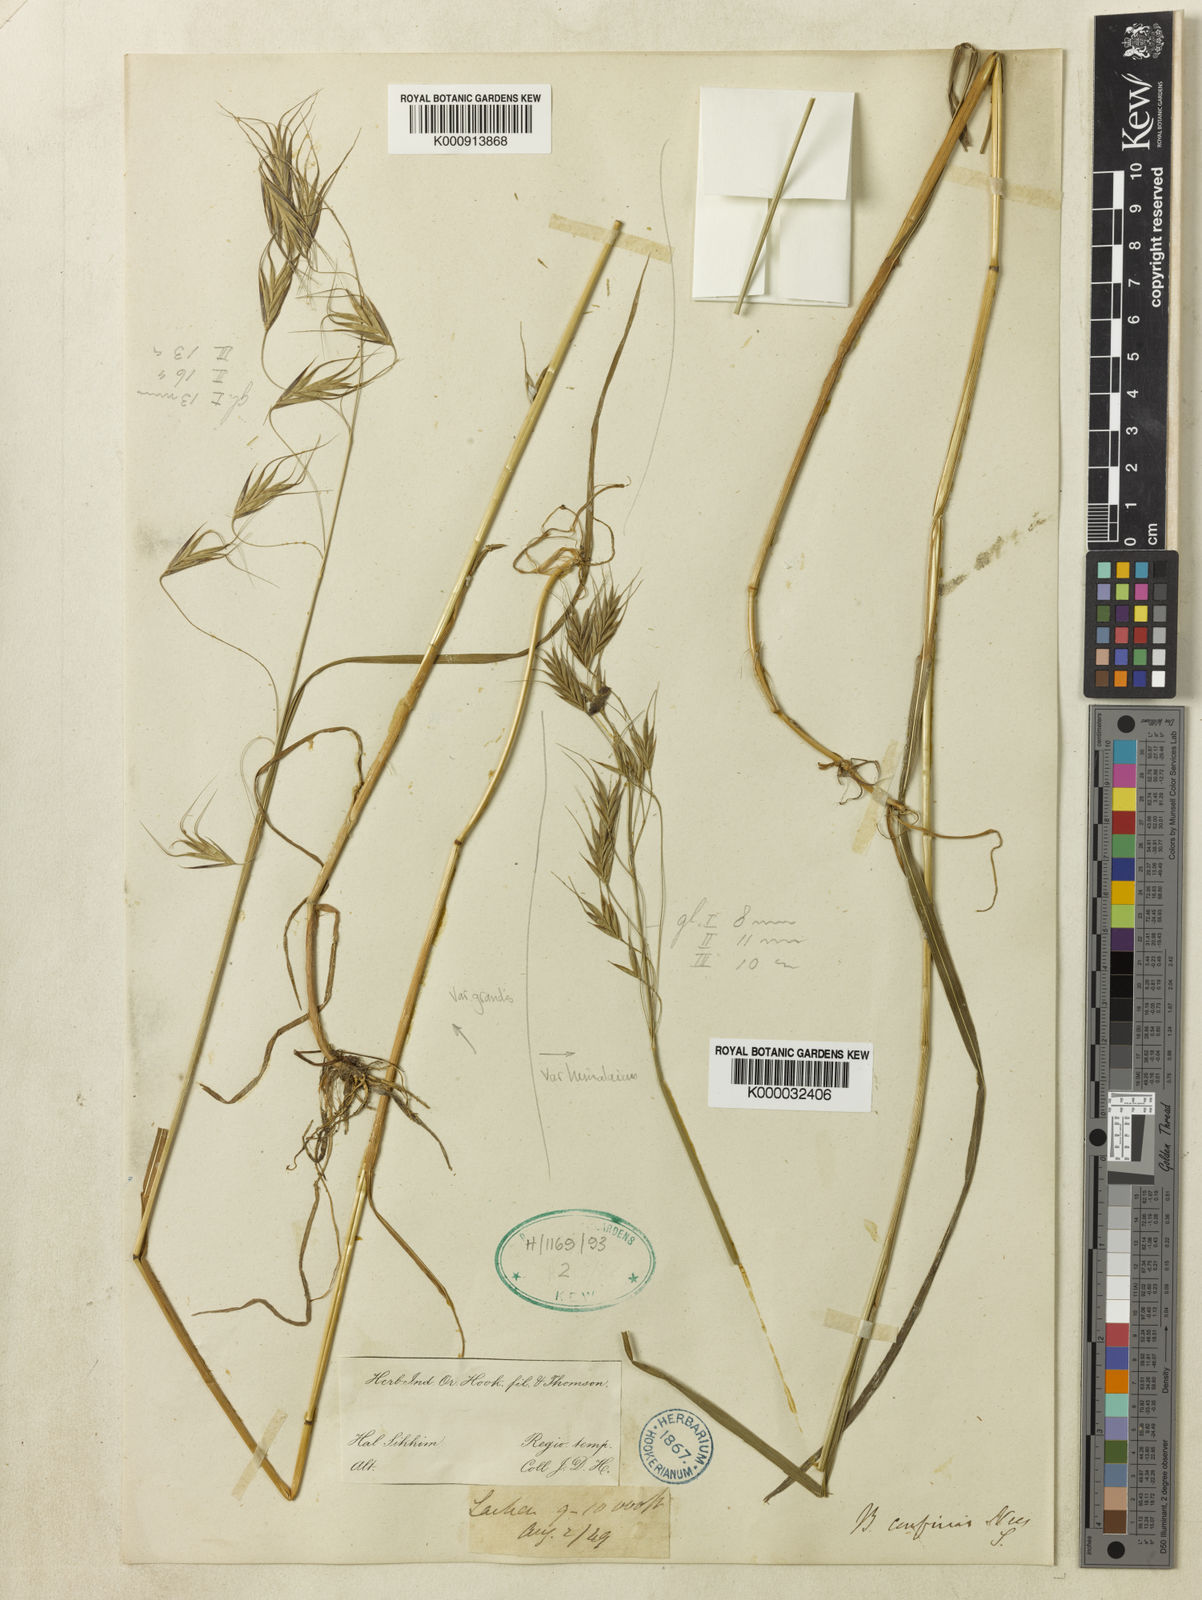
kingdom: Plantae
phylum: Tracheophyta
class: Liliopsida
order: Poales
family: Poaceae
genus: Bromus
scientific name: Bromus porphyranthos
